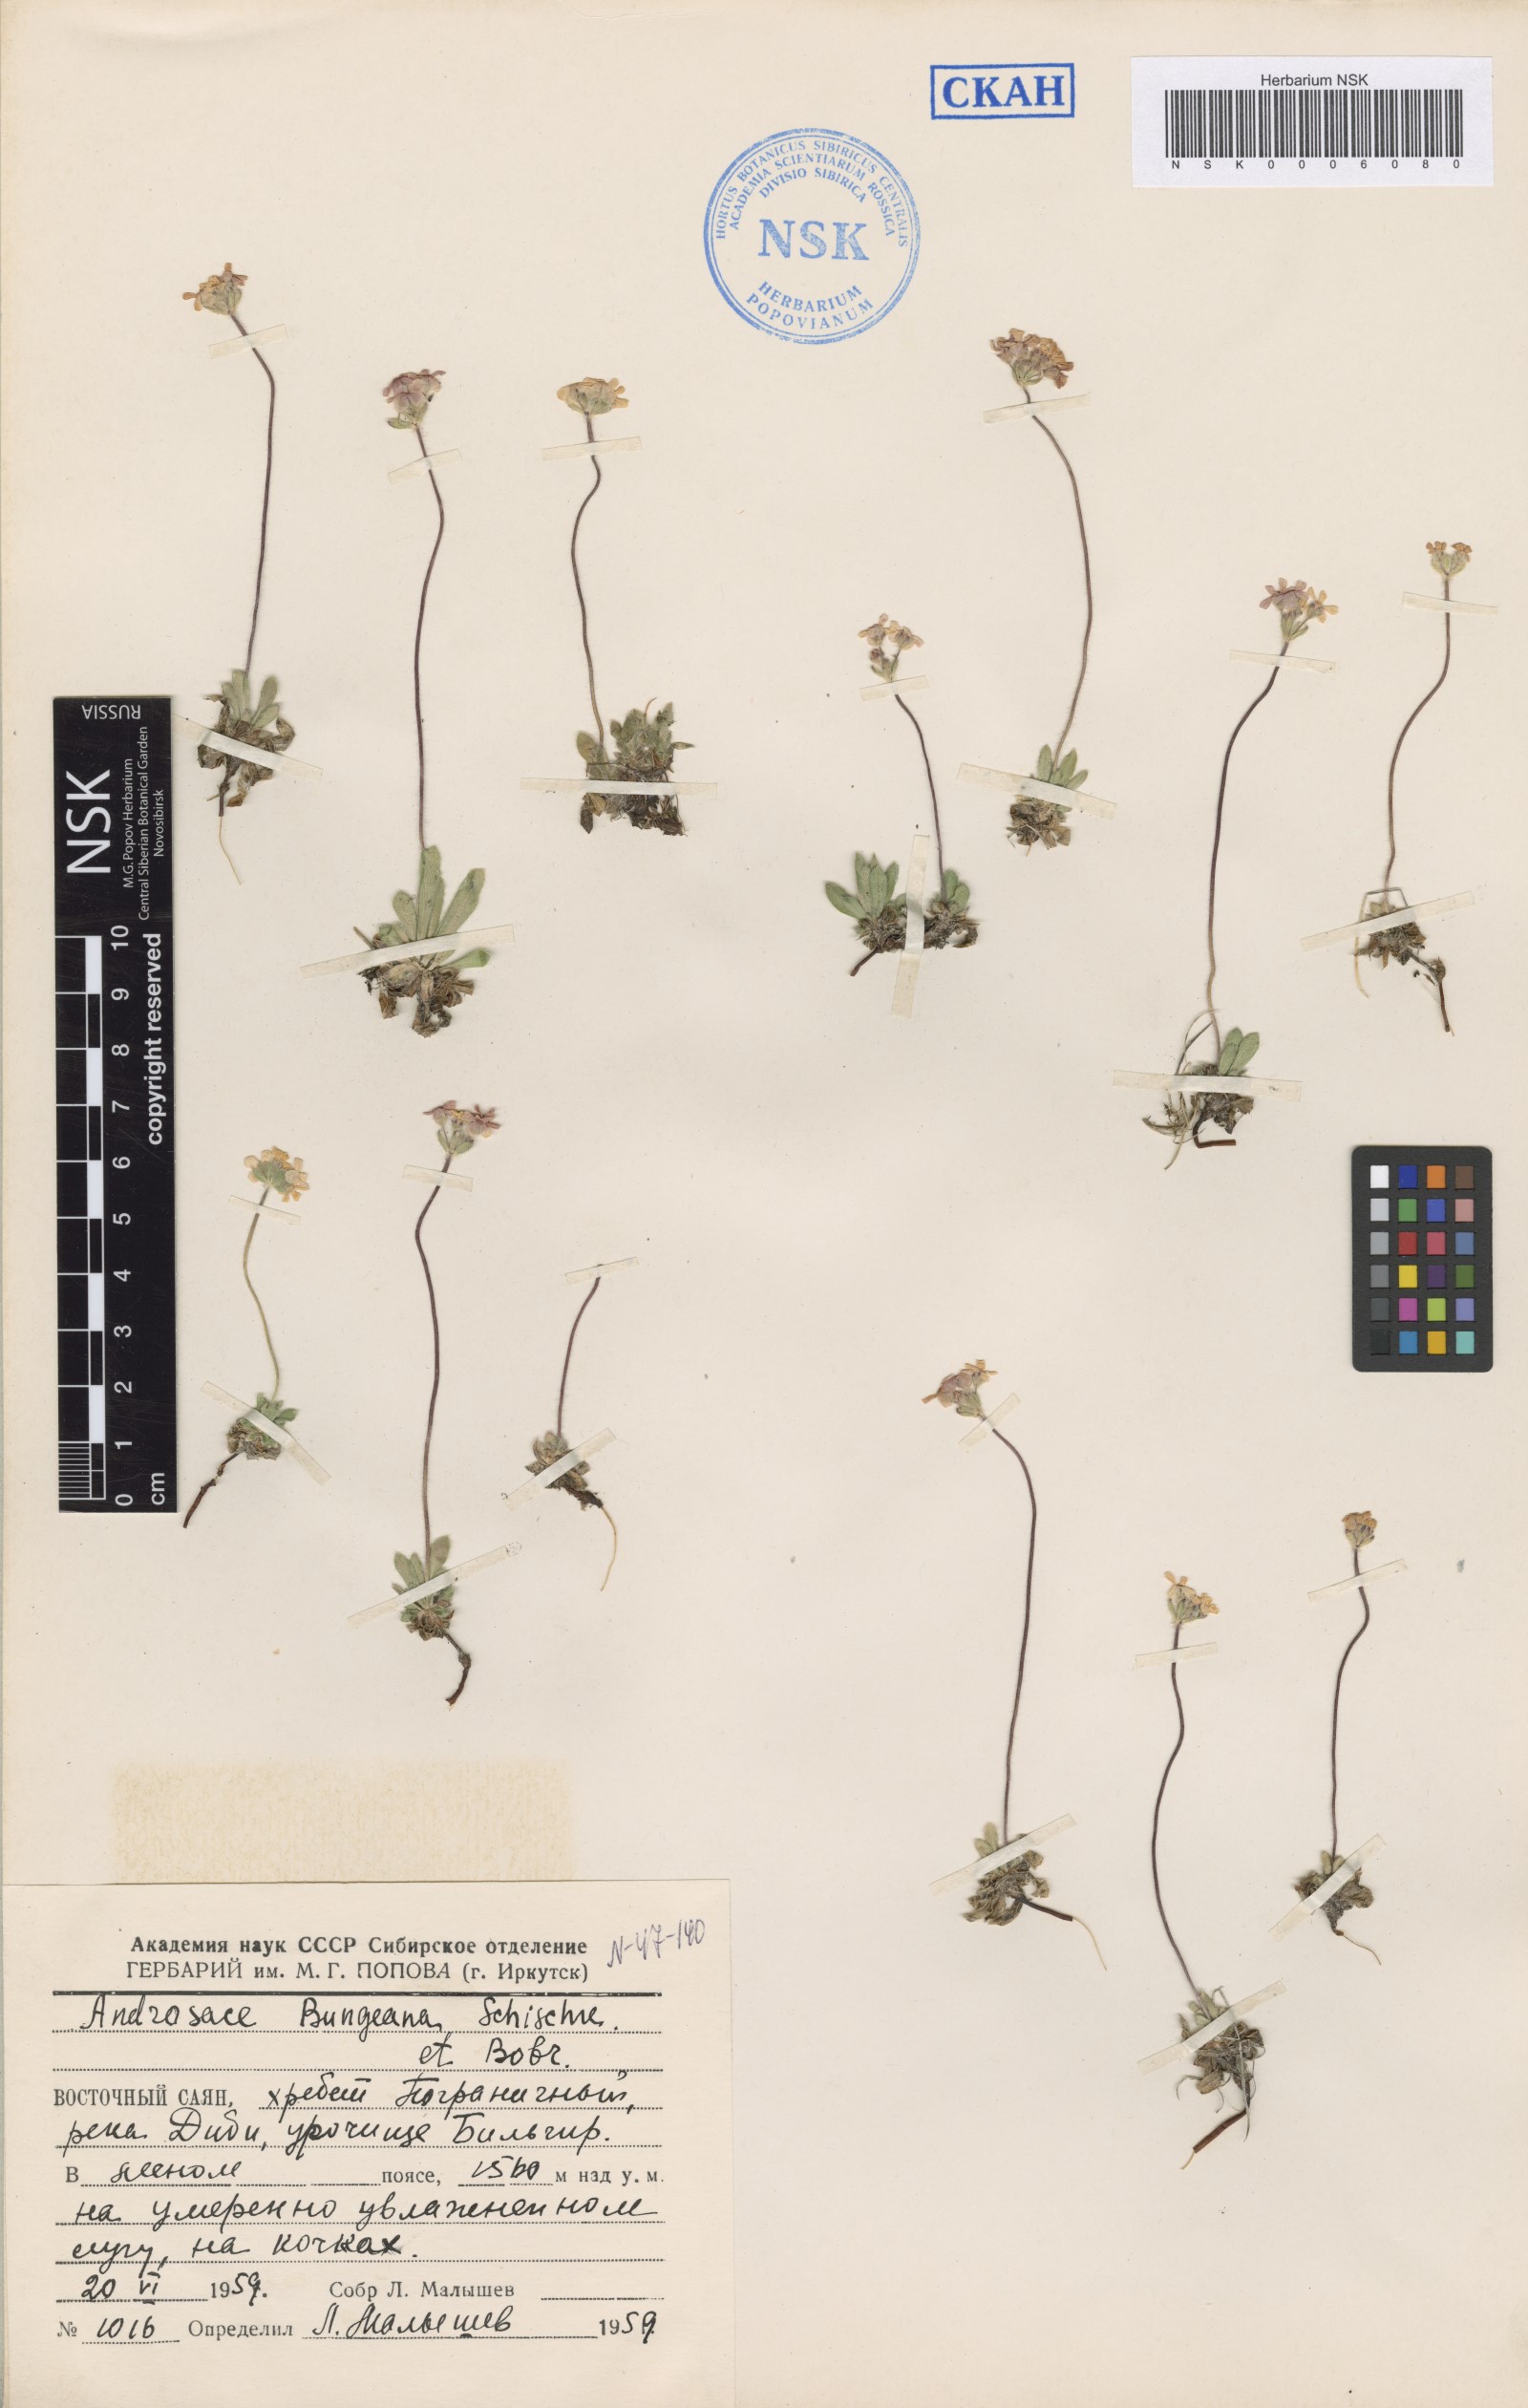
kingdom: Plantae
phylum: Tracheophyta
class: Magnoliopsida
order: Ericales
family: Primulaceae
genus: Androsace
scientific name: Androsace bungeana
